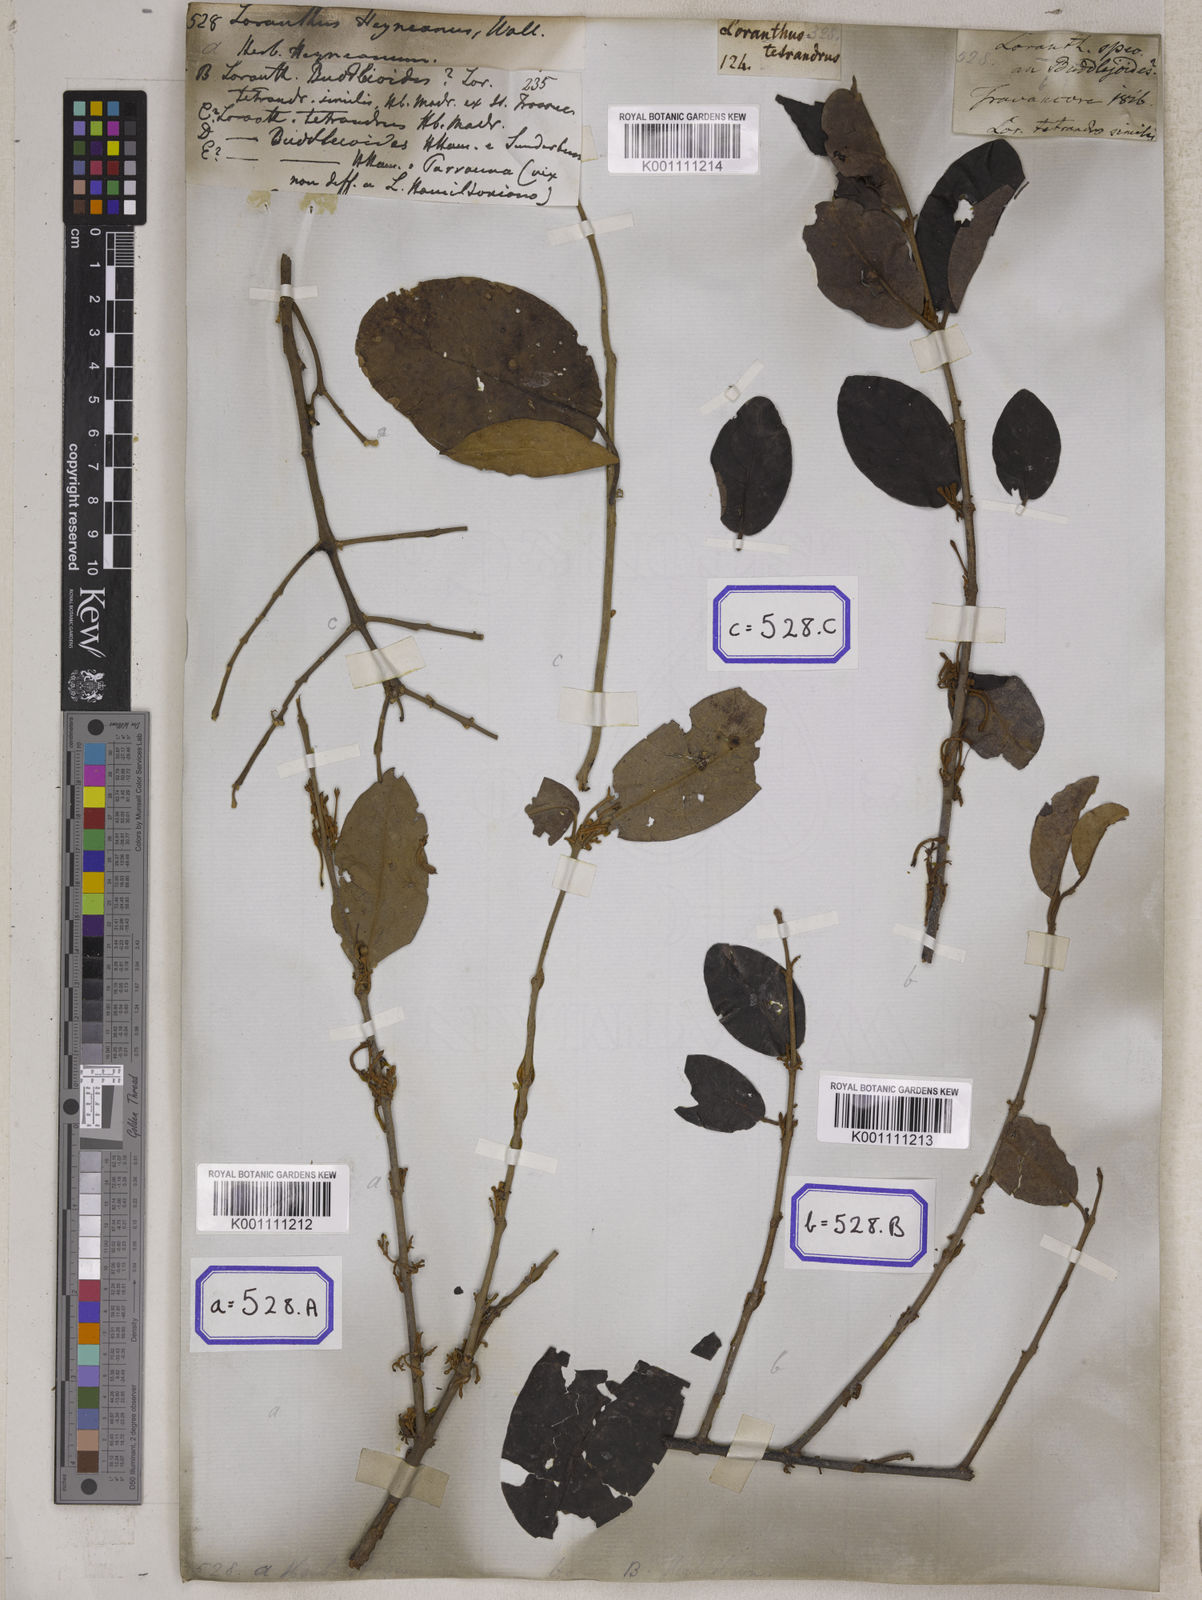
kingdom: Plantae
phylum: Tracheophyta
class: Magnoliopsida
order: Santalales
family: Loranthaceae
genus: Scurrula
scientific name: Scurrula parasitica
